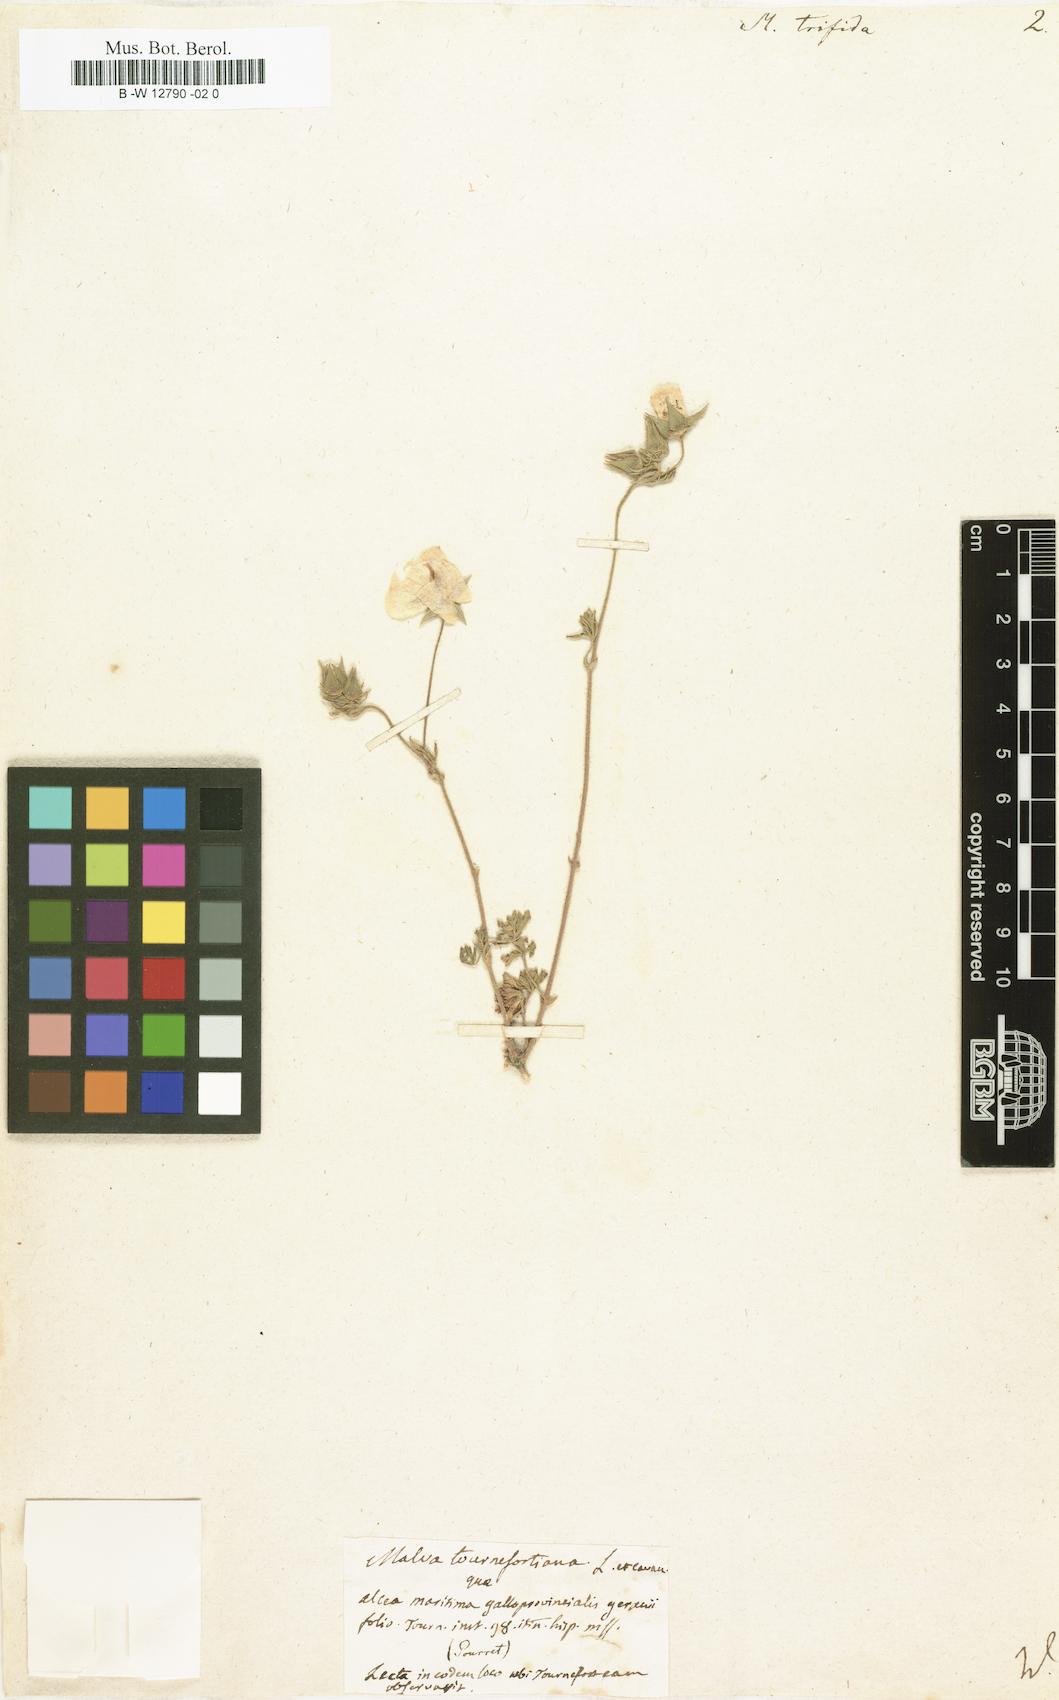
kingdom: Plantae
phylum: Tracheophyta
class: Magnoliopsida
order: Malvales
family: Malvaceae
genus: Malva
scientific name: Malva trifida
